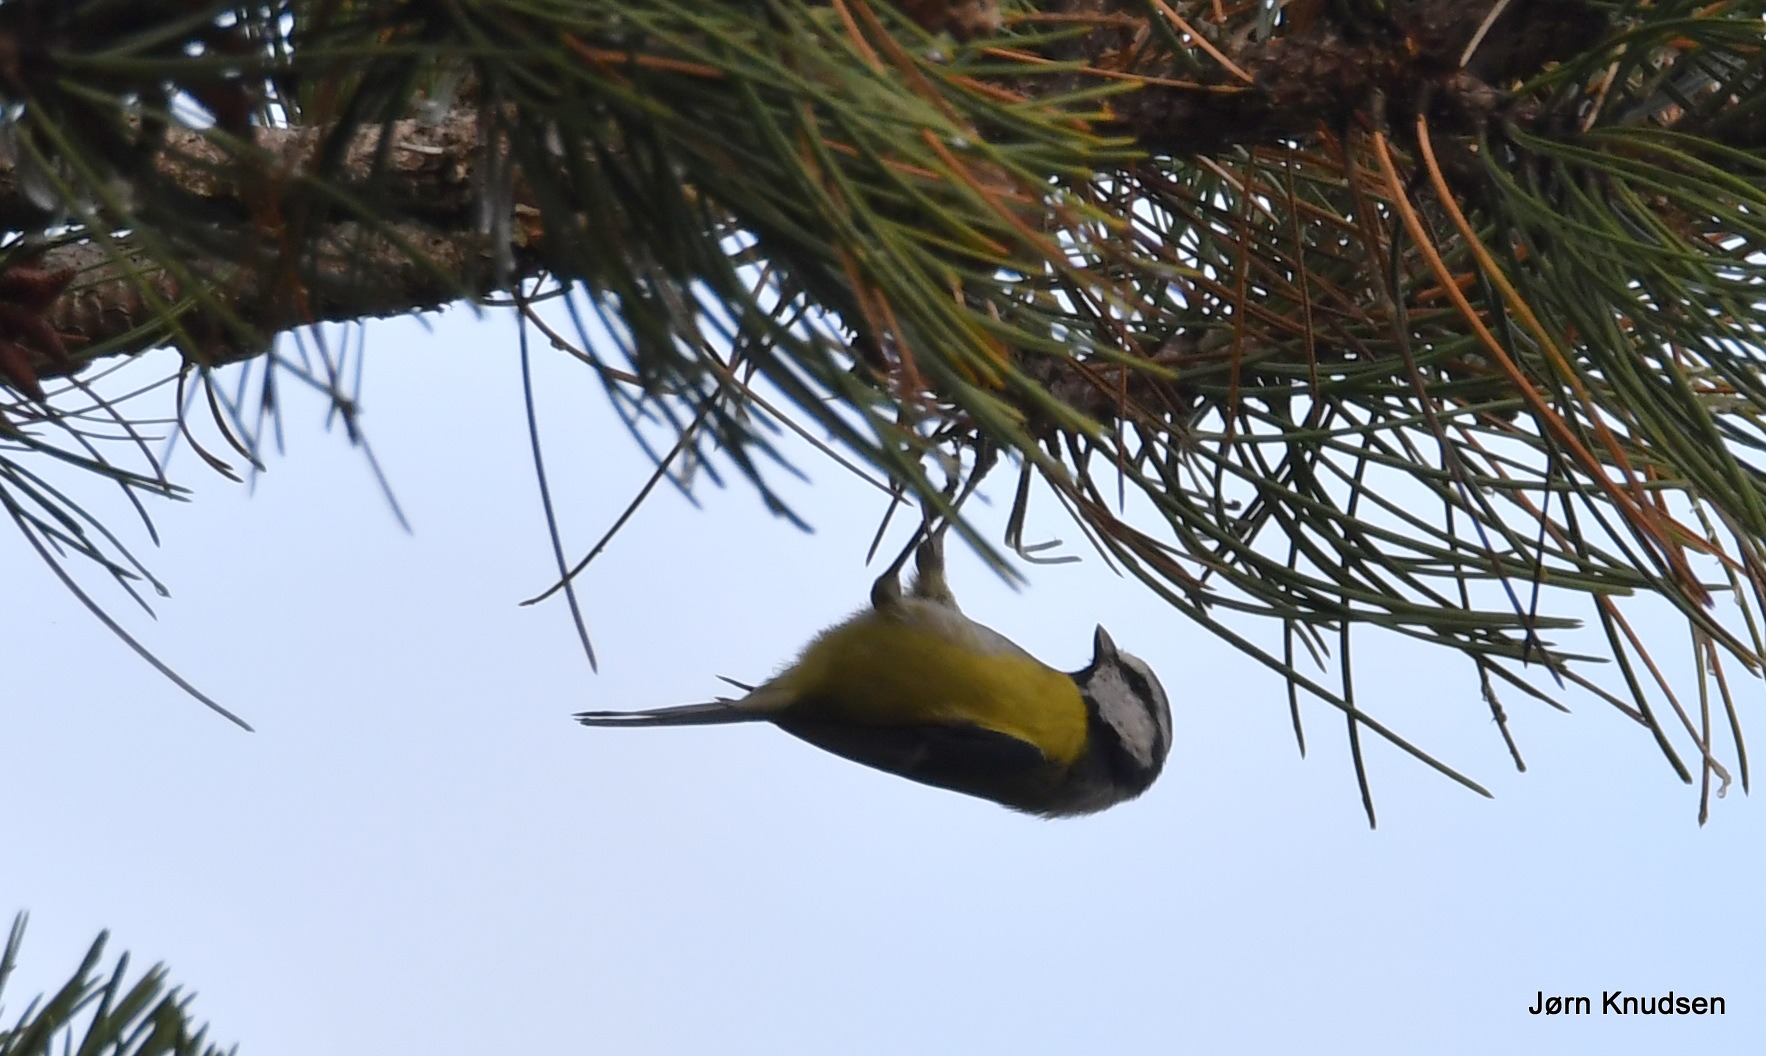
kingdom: Animalia
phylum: Chordata
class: Aves
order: Passeriformes
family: Paridae
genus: Cyanistes
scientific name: Cyanistes caeruleus
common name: Blåmejse
